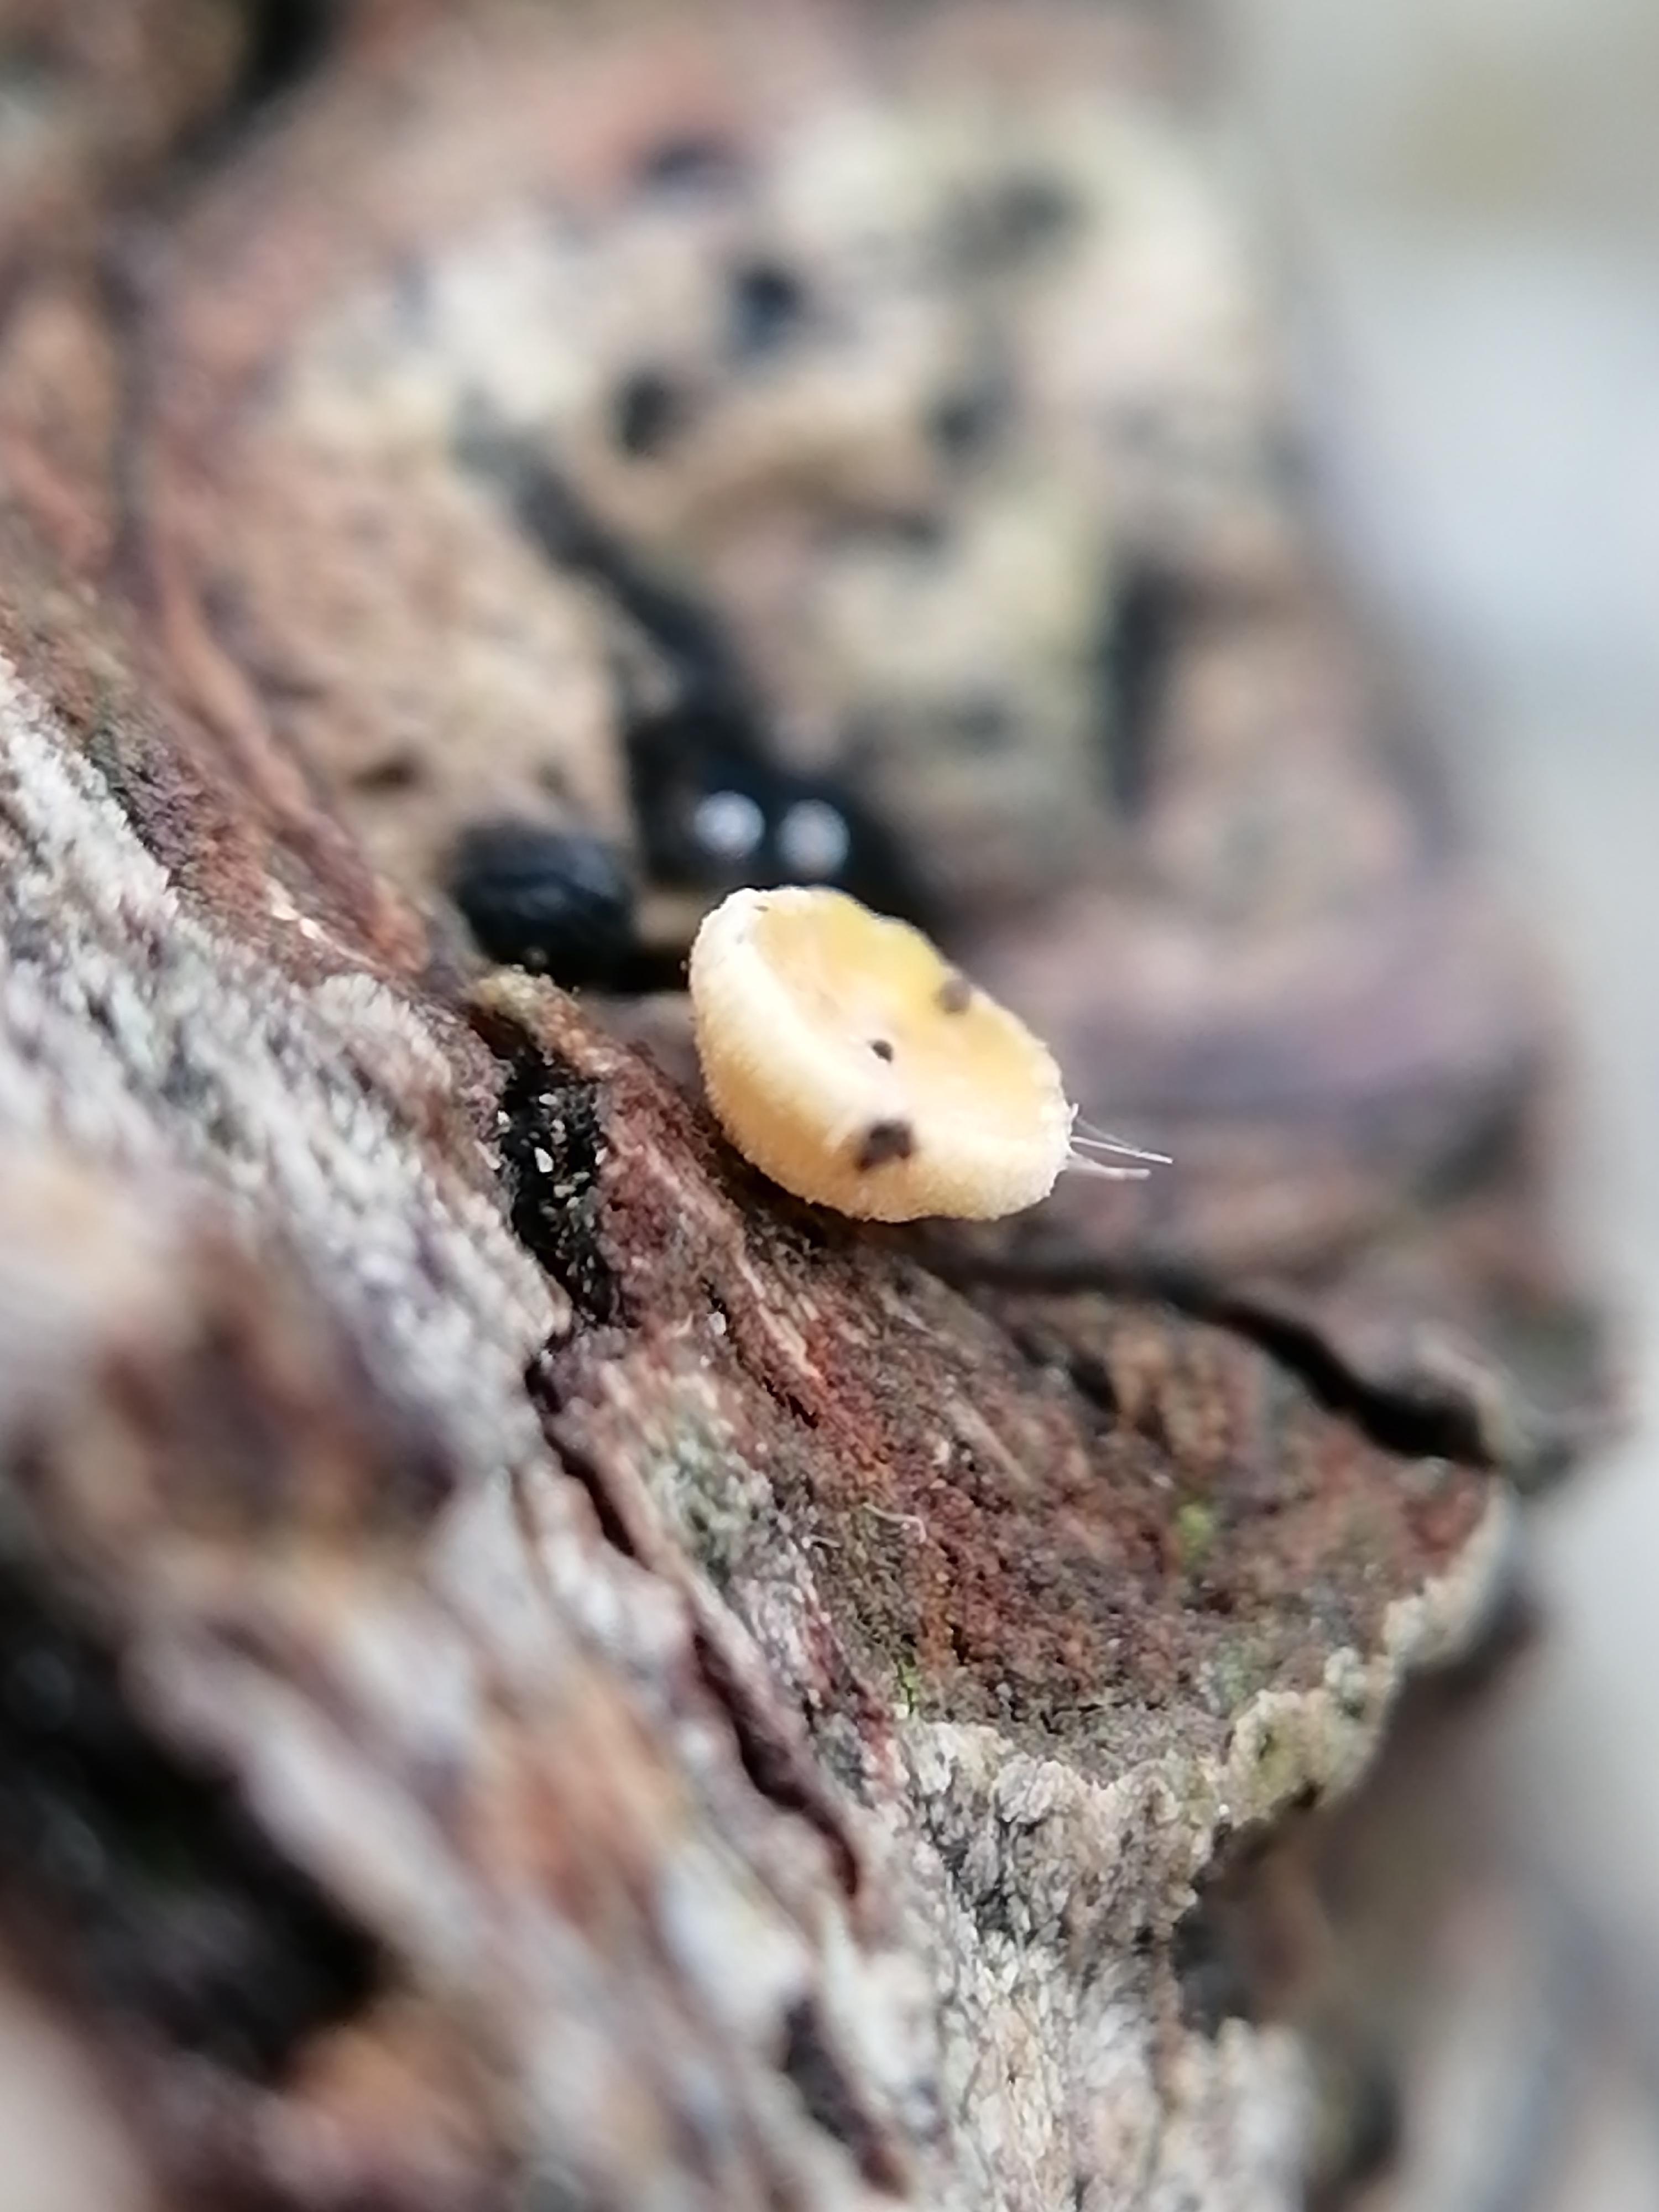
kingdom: Fungi
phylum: Ascomycota
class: Leotiomycetes
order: Helotiales
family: Helotiaceae
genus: Hymenoscyphus
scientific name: Hymenoscyphus
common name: stilkskive
